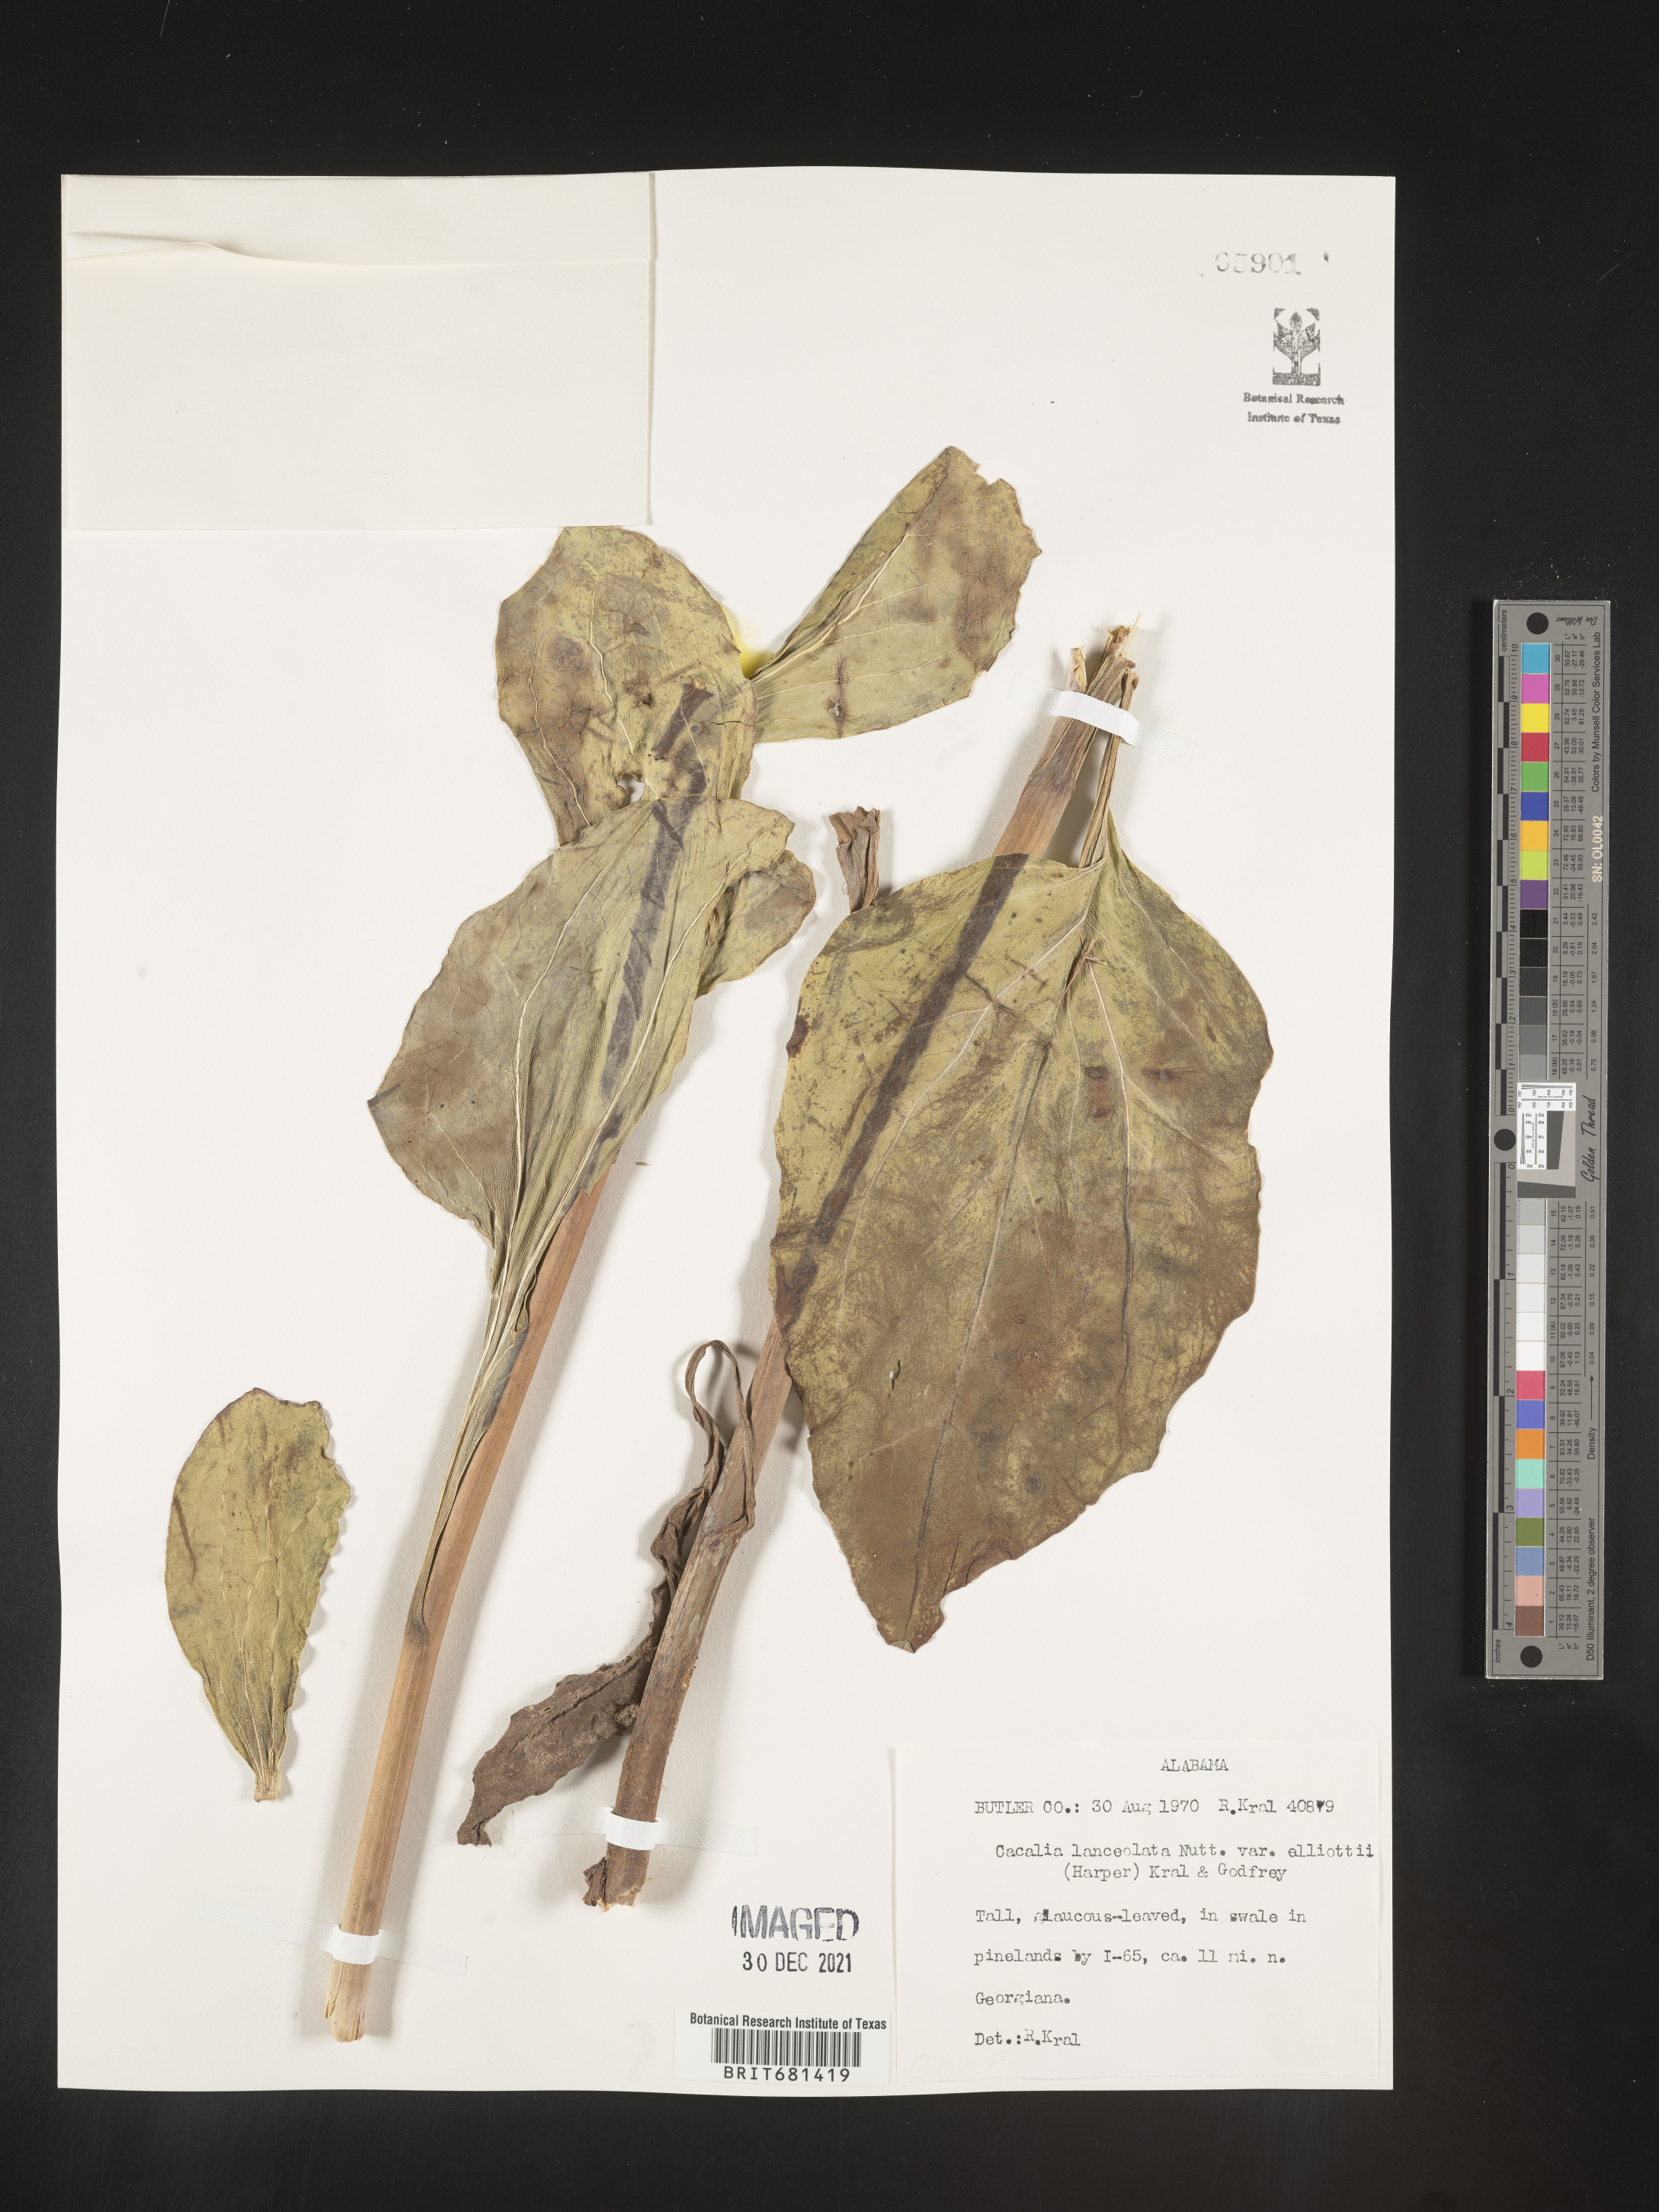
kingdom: Plantae
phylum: Tracheophyta
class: Magnoliopsida
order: Asterales
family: Asteraceae
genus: Arnoglossum
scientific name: Arnoglossum ovatum
